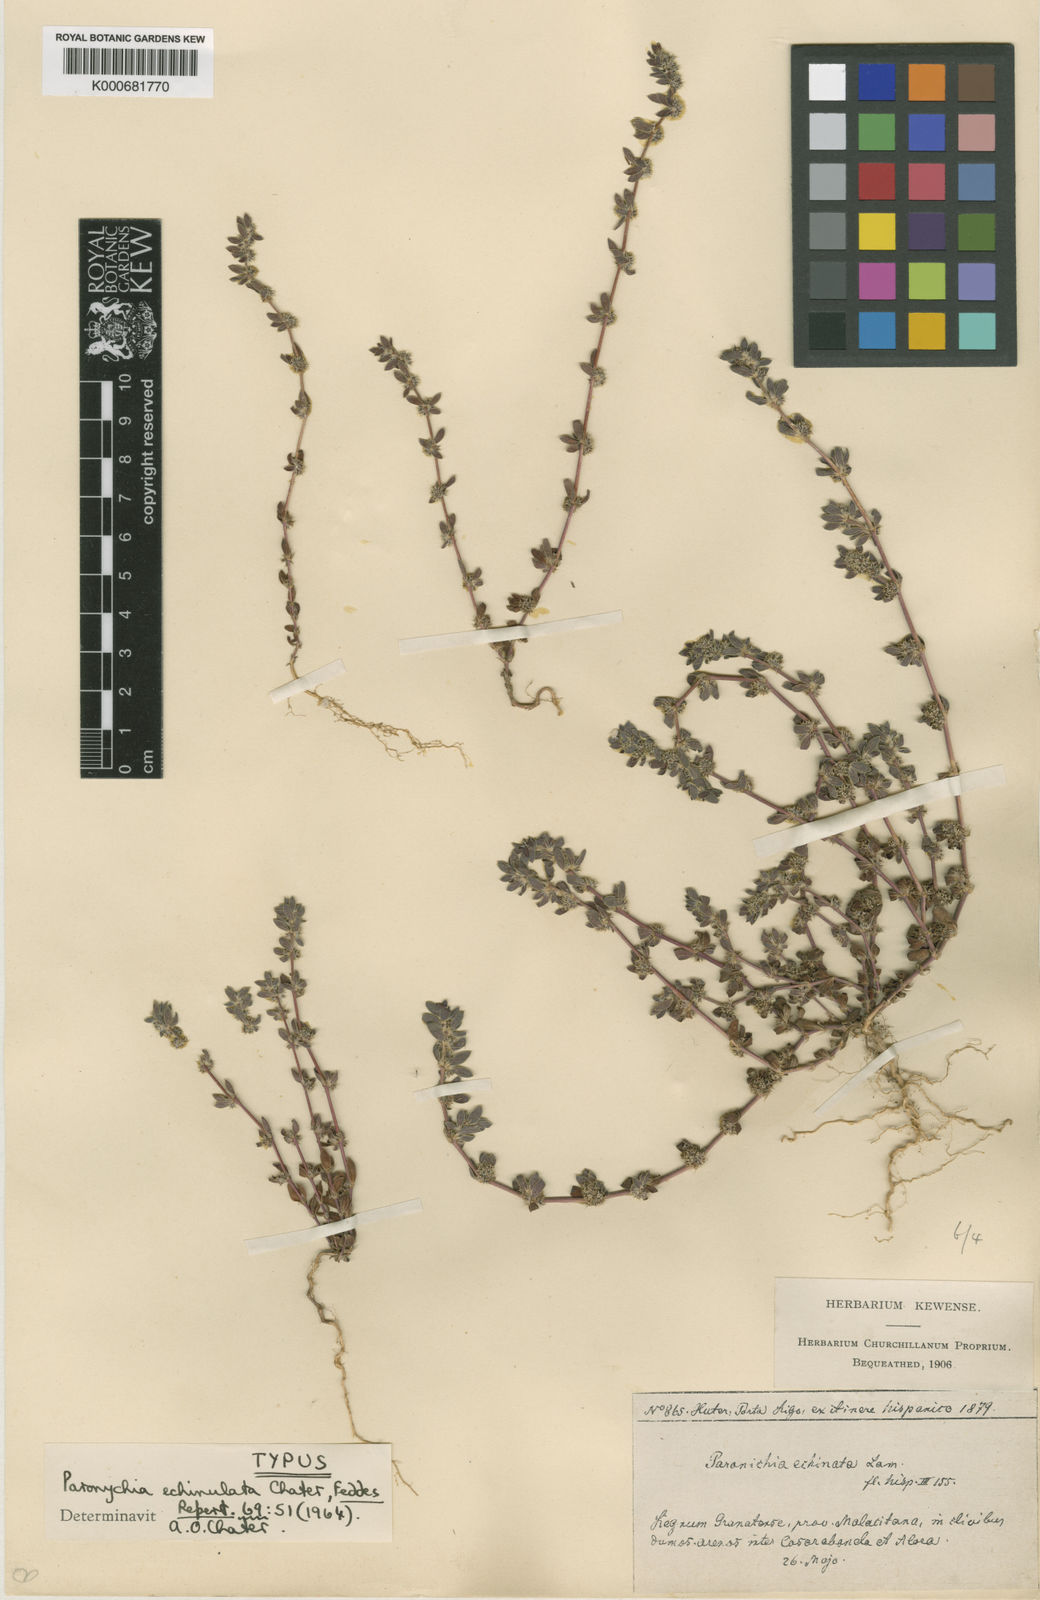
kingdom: Plantae
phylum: Tracheophyta
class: Magnoliopsida
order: Caryophyllales
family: Caryophyllaceae
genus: Paronychia
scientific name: Paronychia echinulata
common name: Eurasian nailwort
